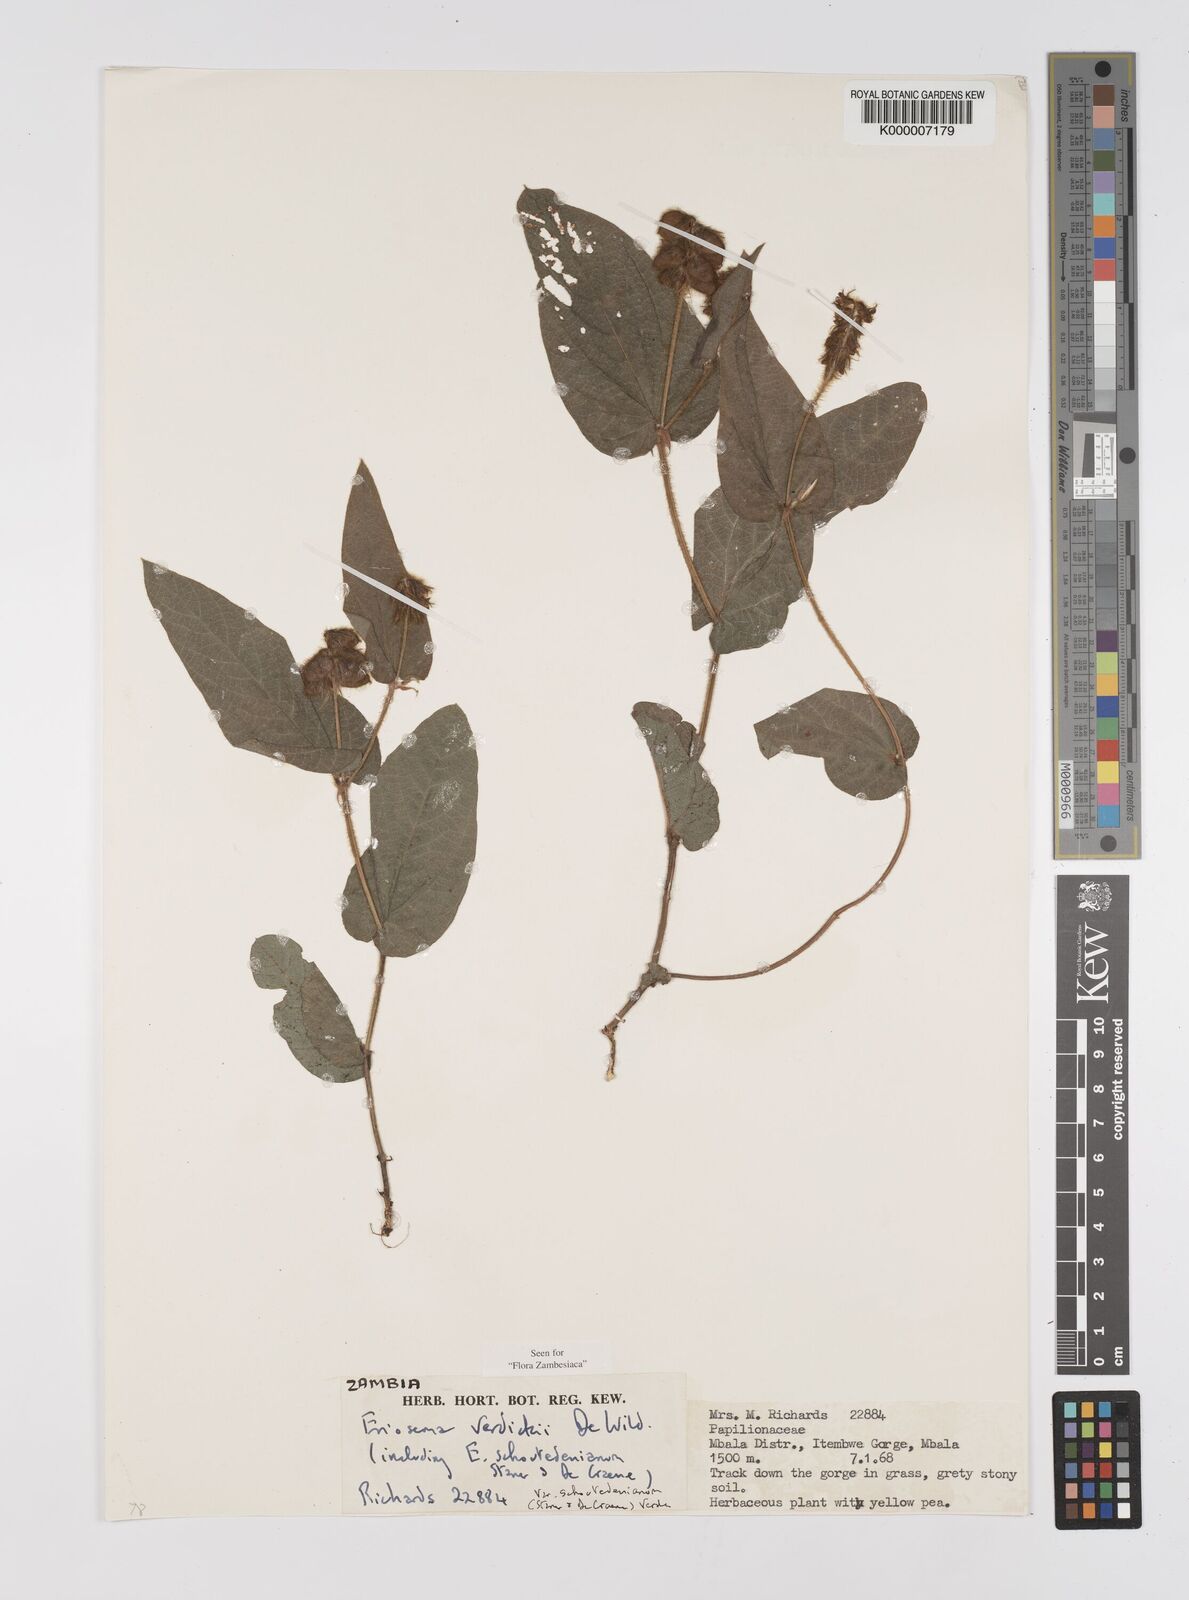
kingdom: Plantae
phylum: Tracheophyta
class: Magnoliopsida
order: Fabales
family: Fabaceae
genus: Eriosema
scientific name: Eriosema verdickii
